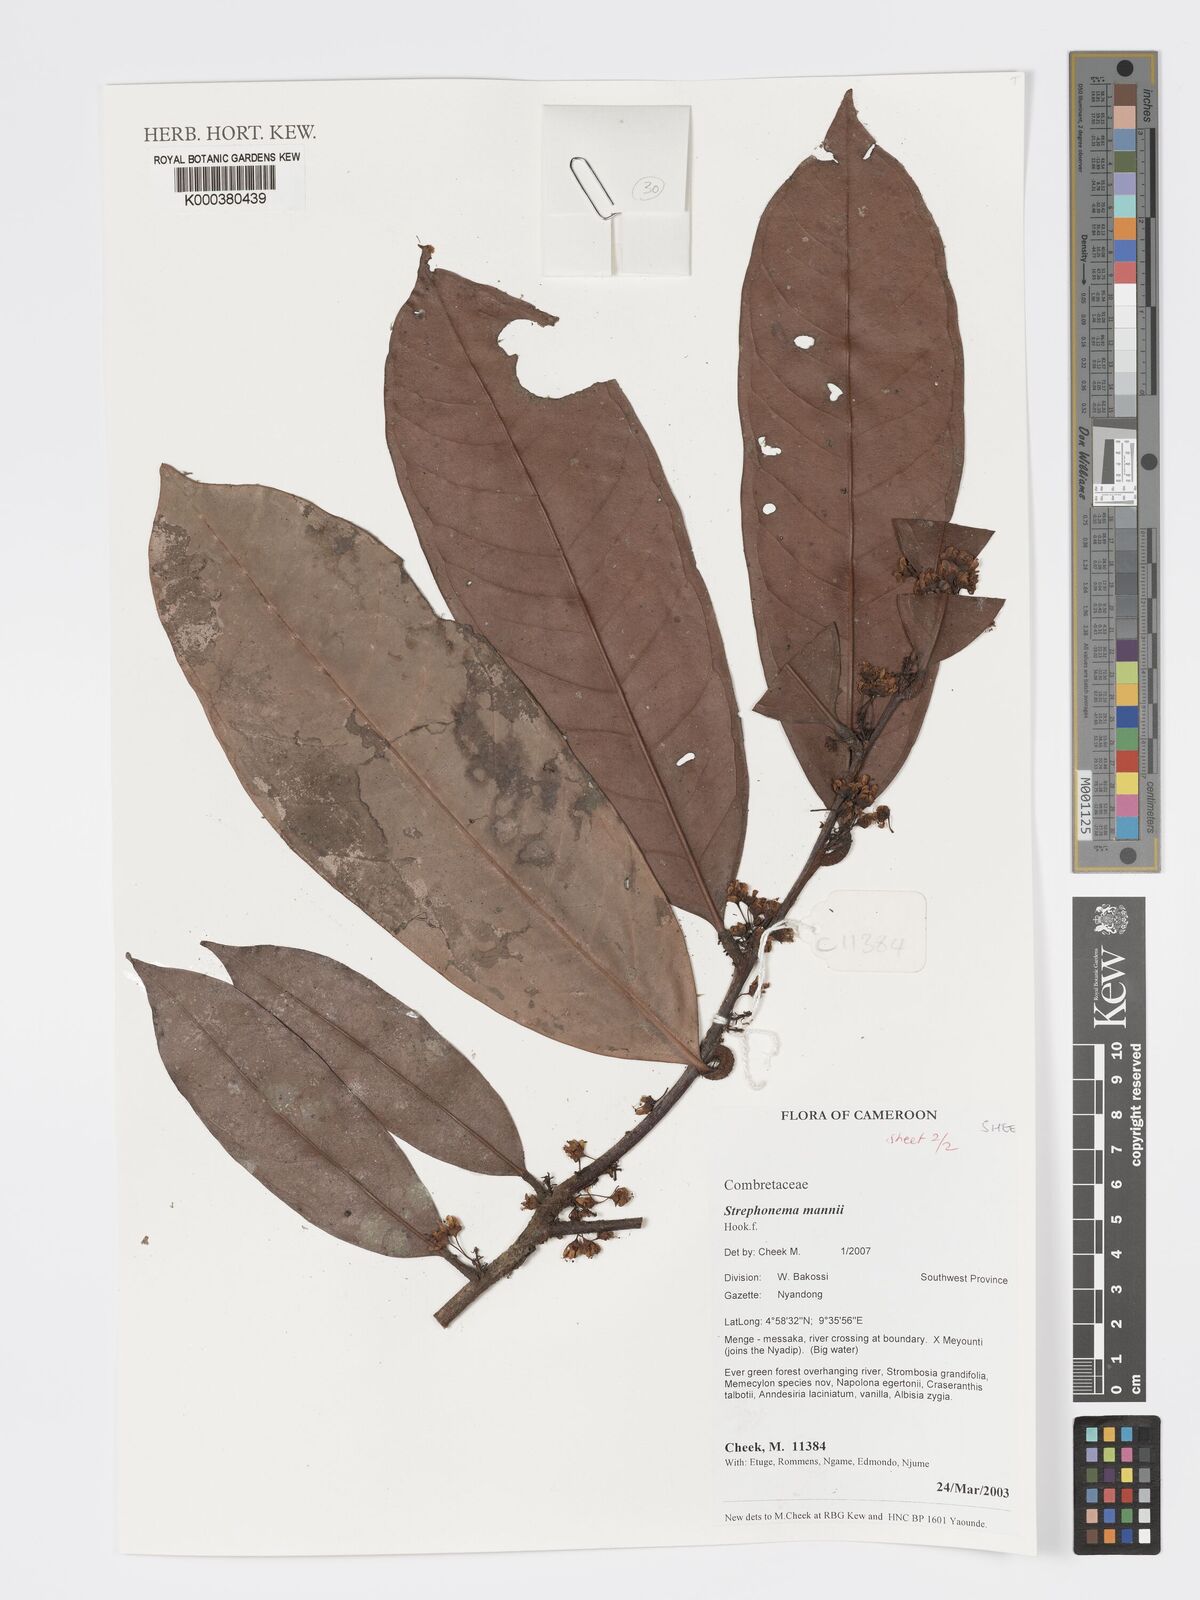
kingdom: Plantae
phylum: Tracheophyta
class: Magnoliopsida
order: Myrtales
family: Combretaceae
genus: Strephonema
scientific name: Strephonema mannii
